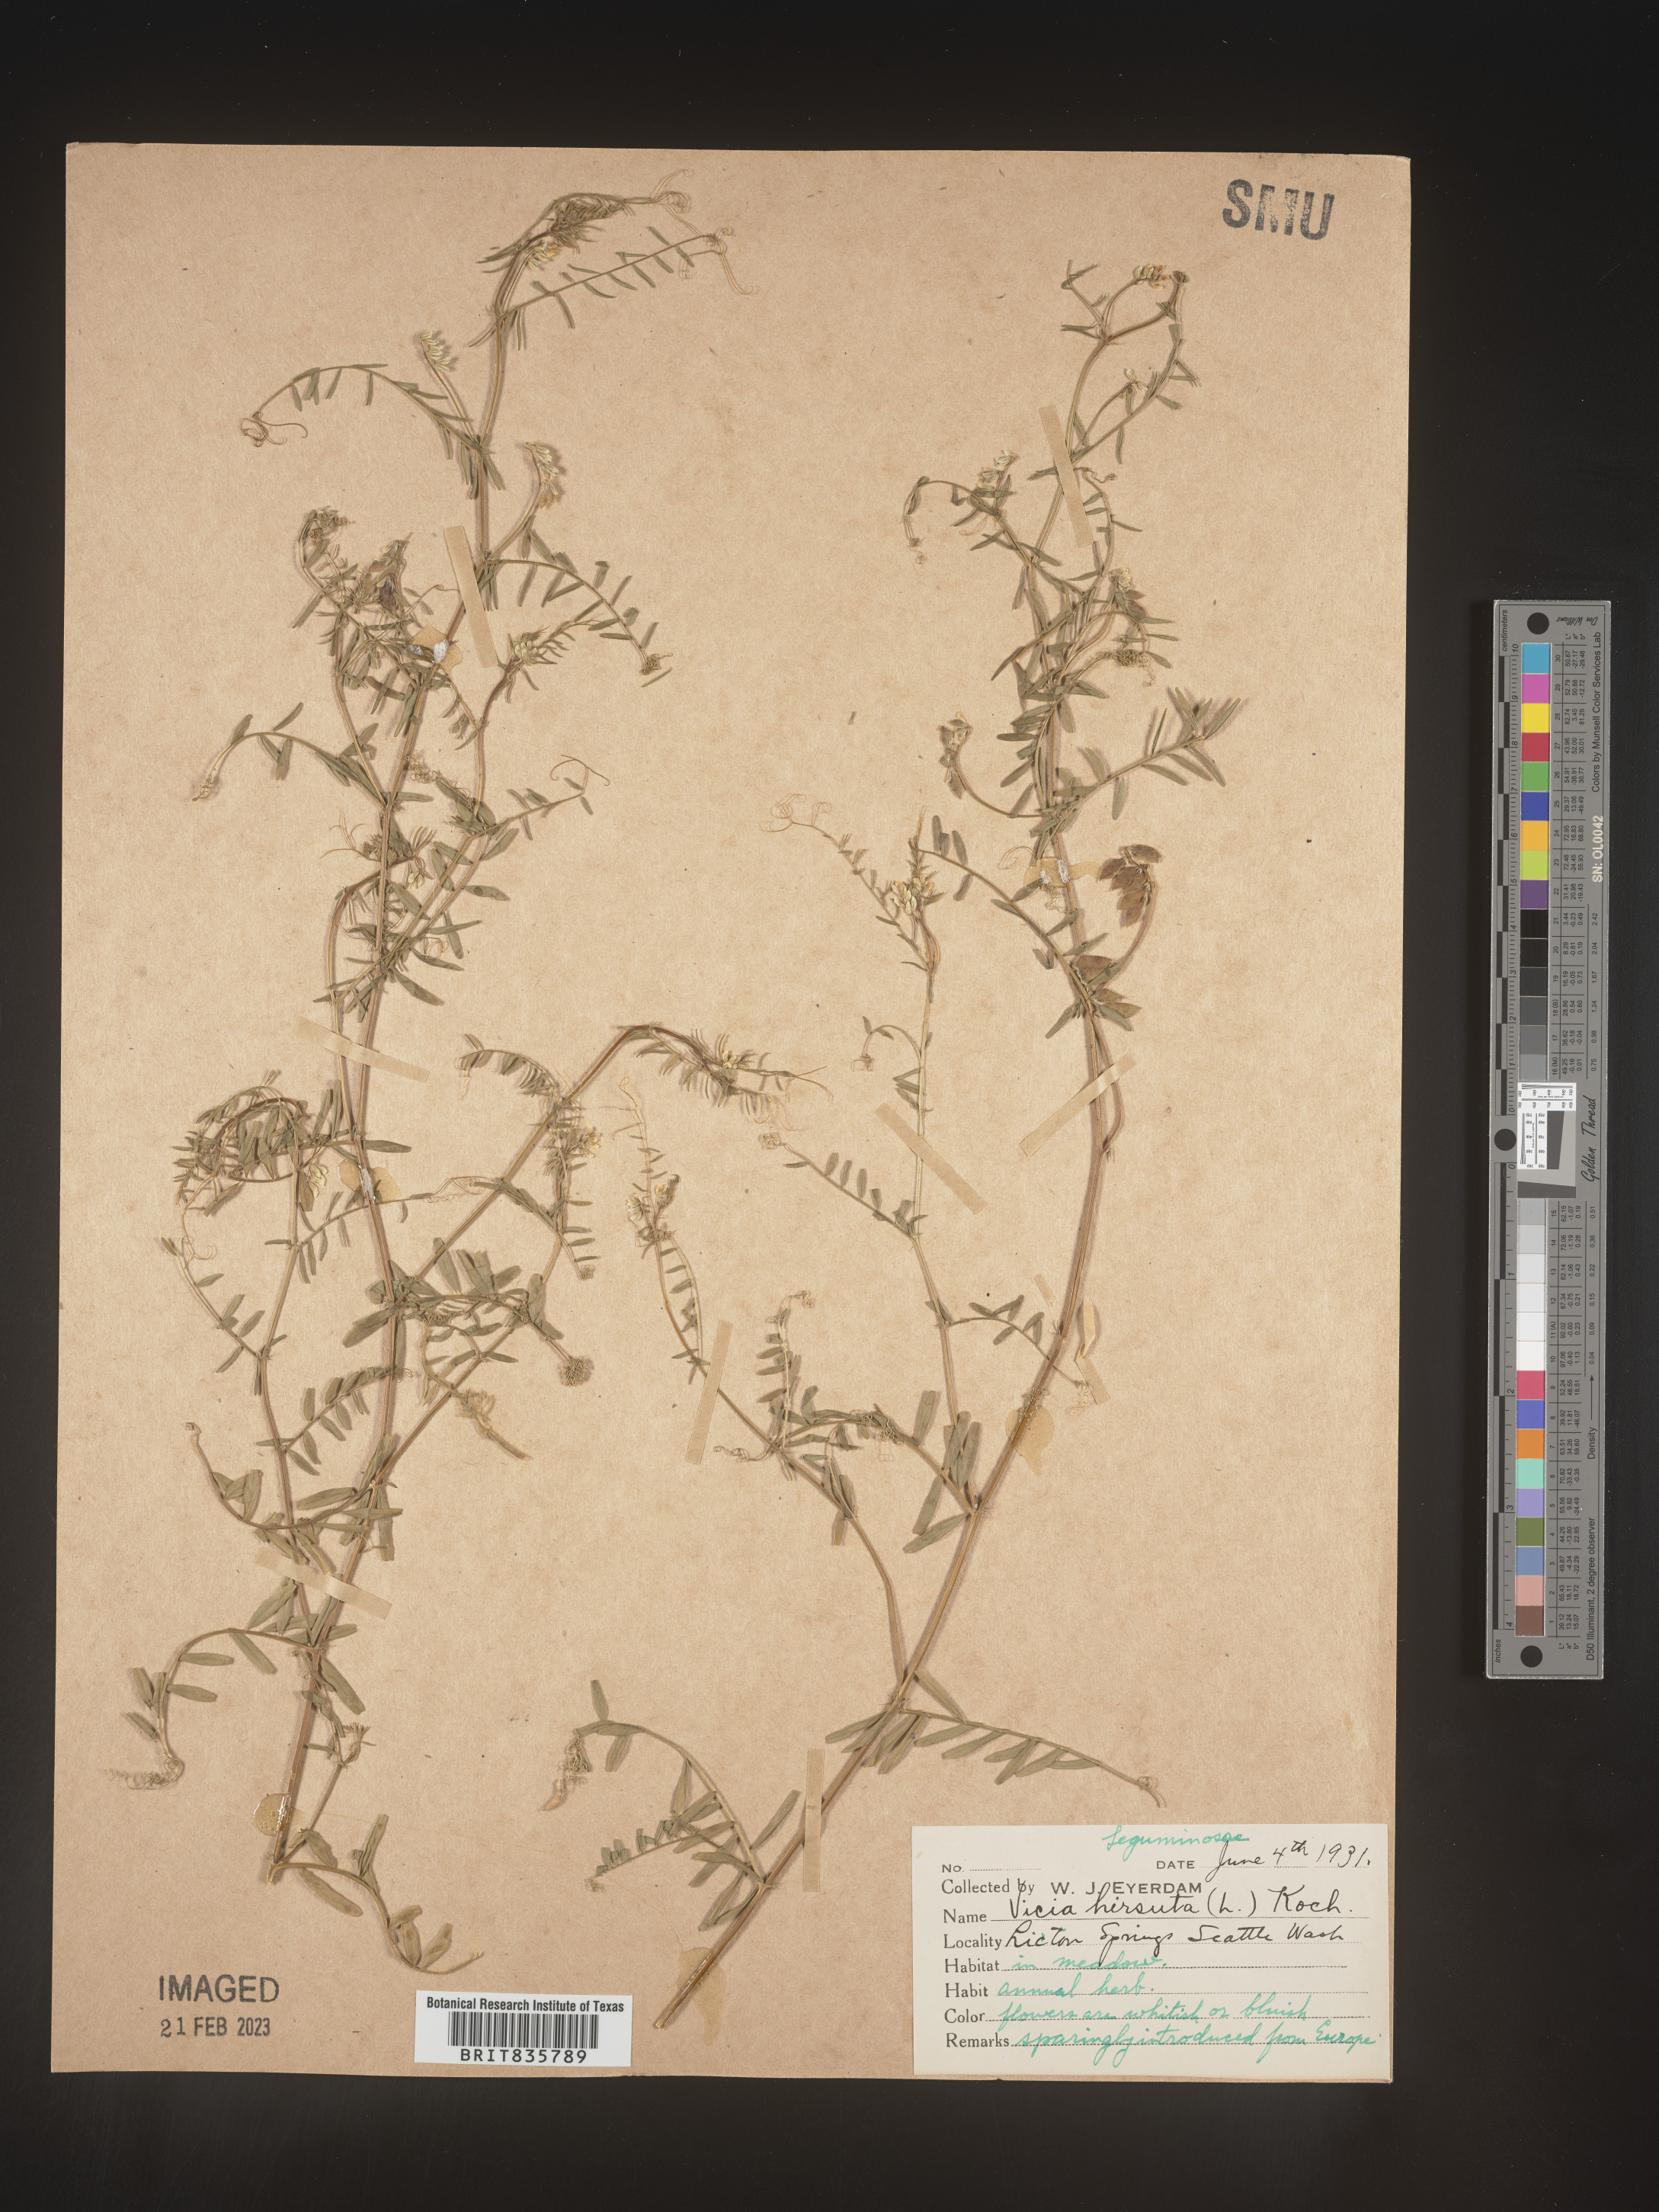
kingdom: Plantae
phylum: Tracheophyta
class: Magnoliopsida
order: Fabales
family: Fabaceae
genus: Vicia
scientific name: Vicia
